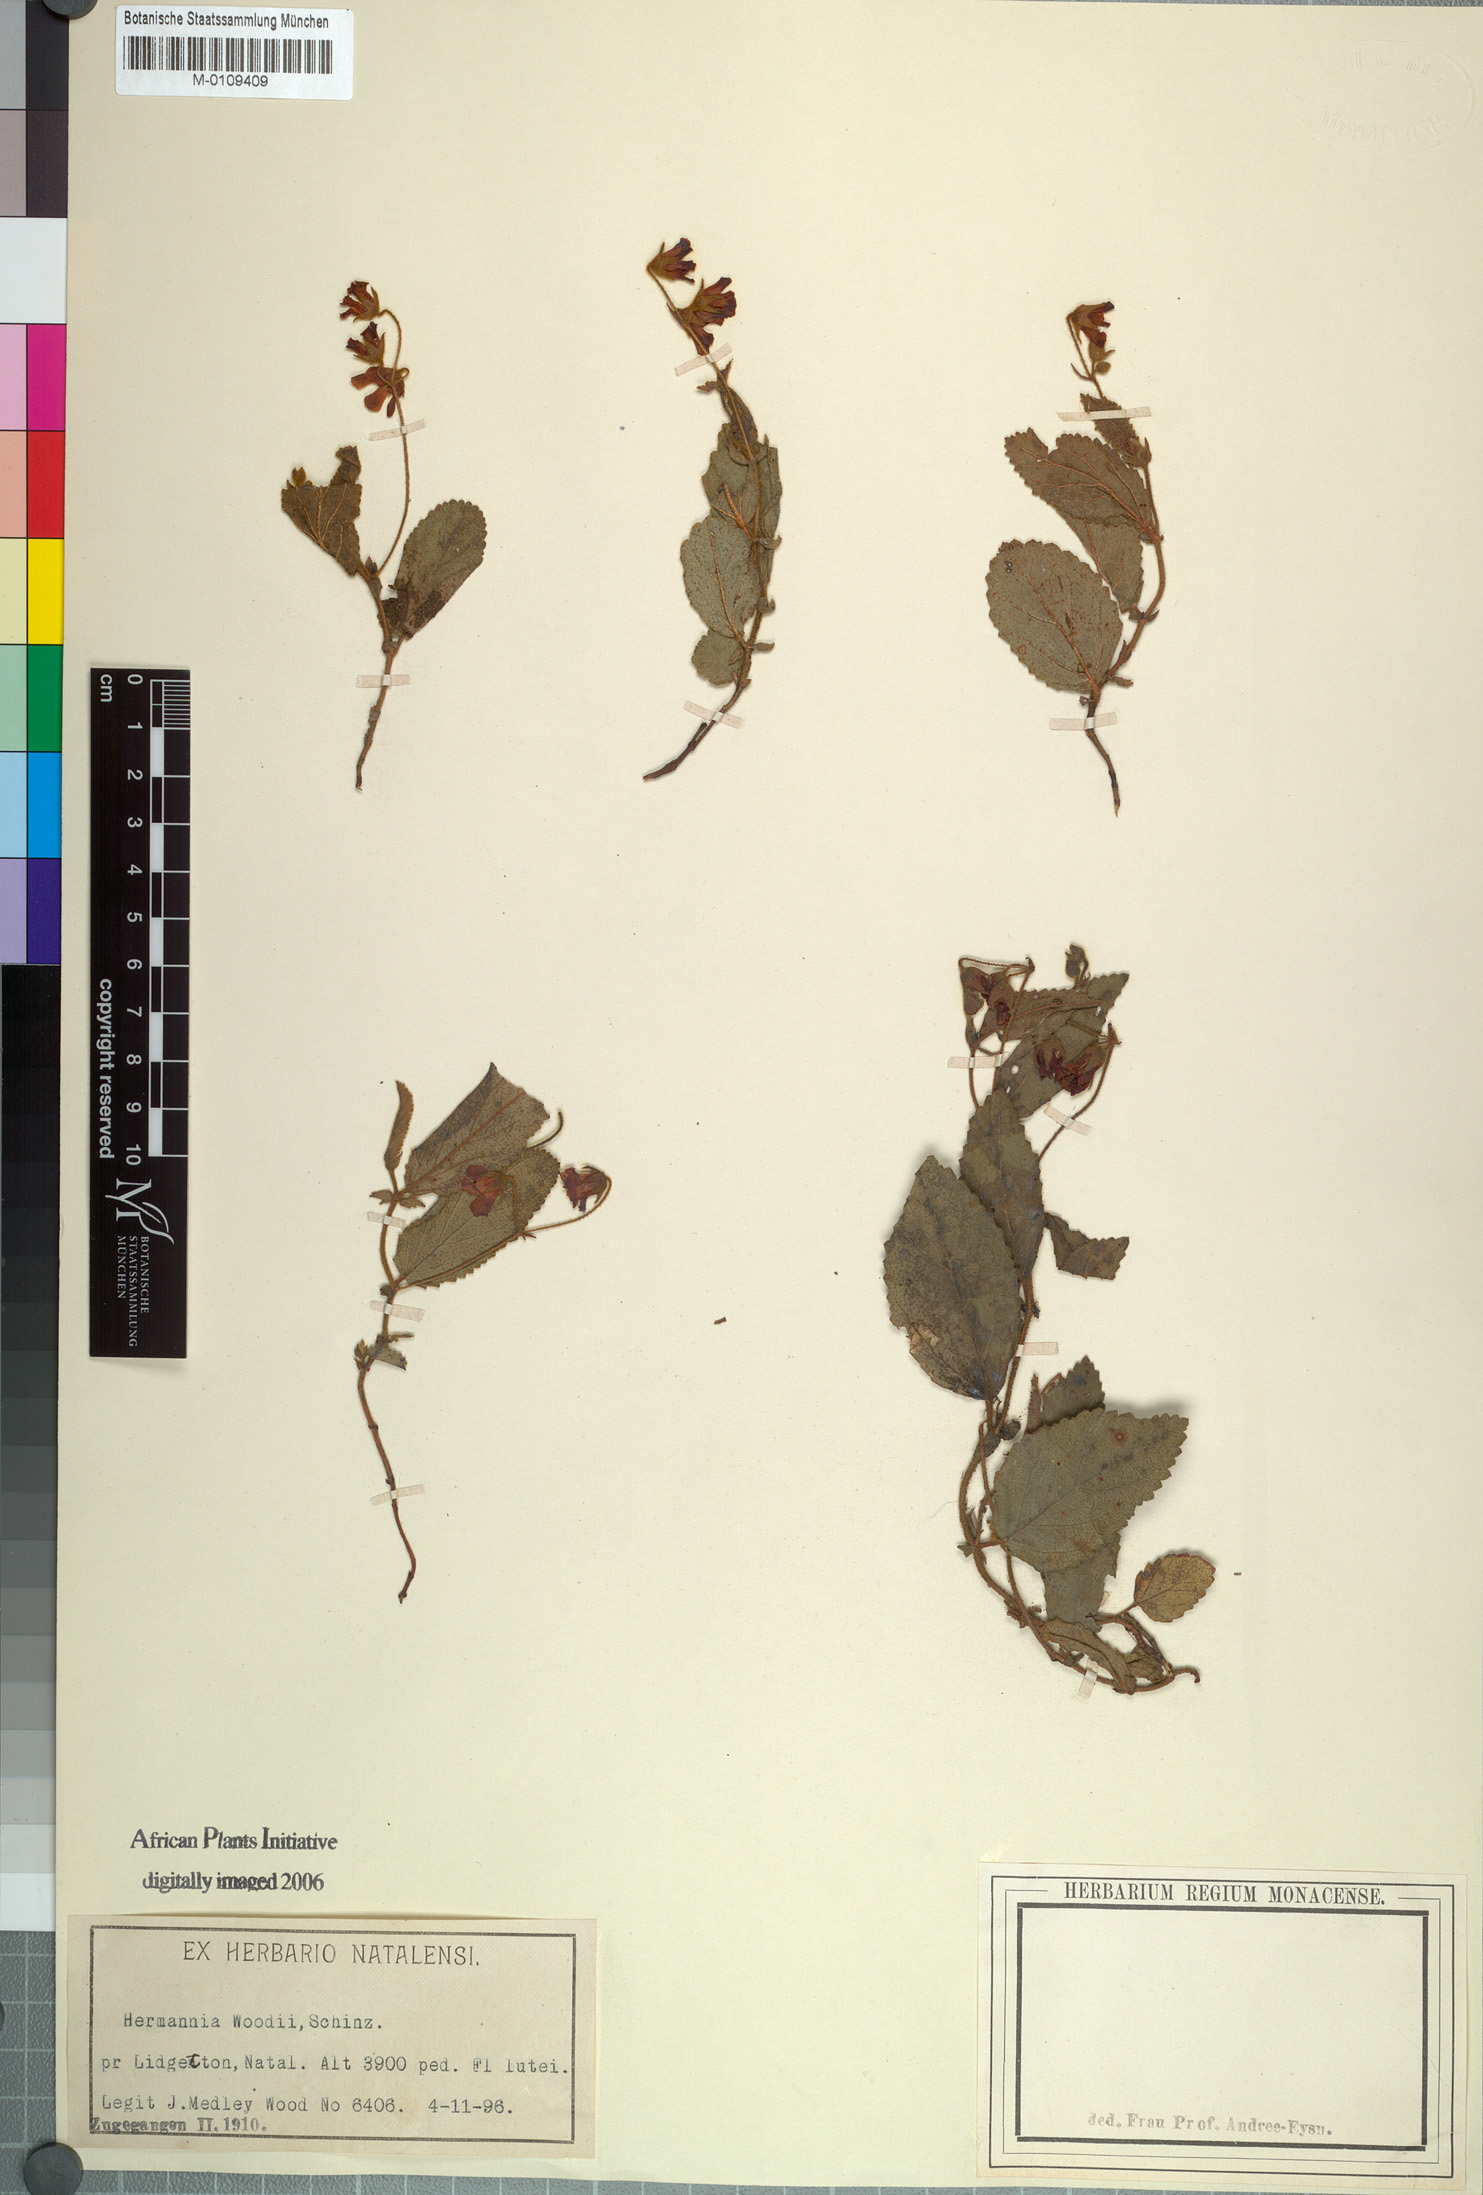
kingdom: Plantae
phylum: Tracheophyta
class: Magnoliopsida
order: Malvales
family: Malvaceae
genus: Hermannia
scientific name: Hermannia woodii
